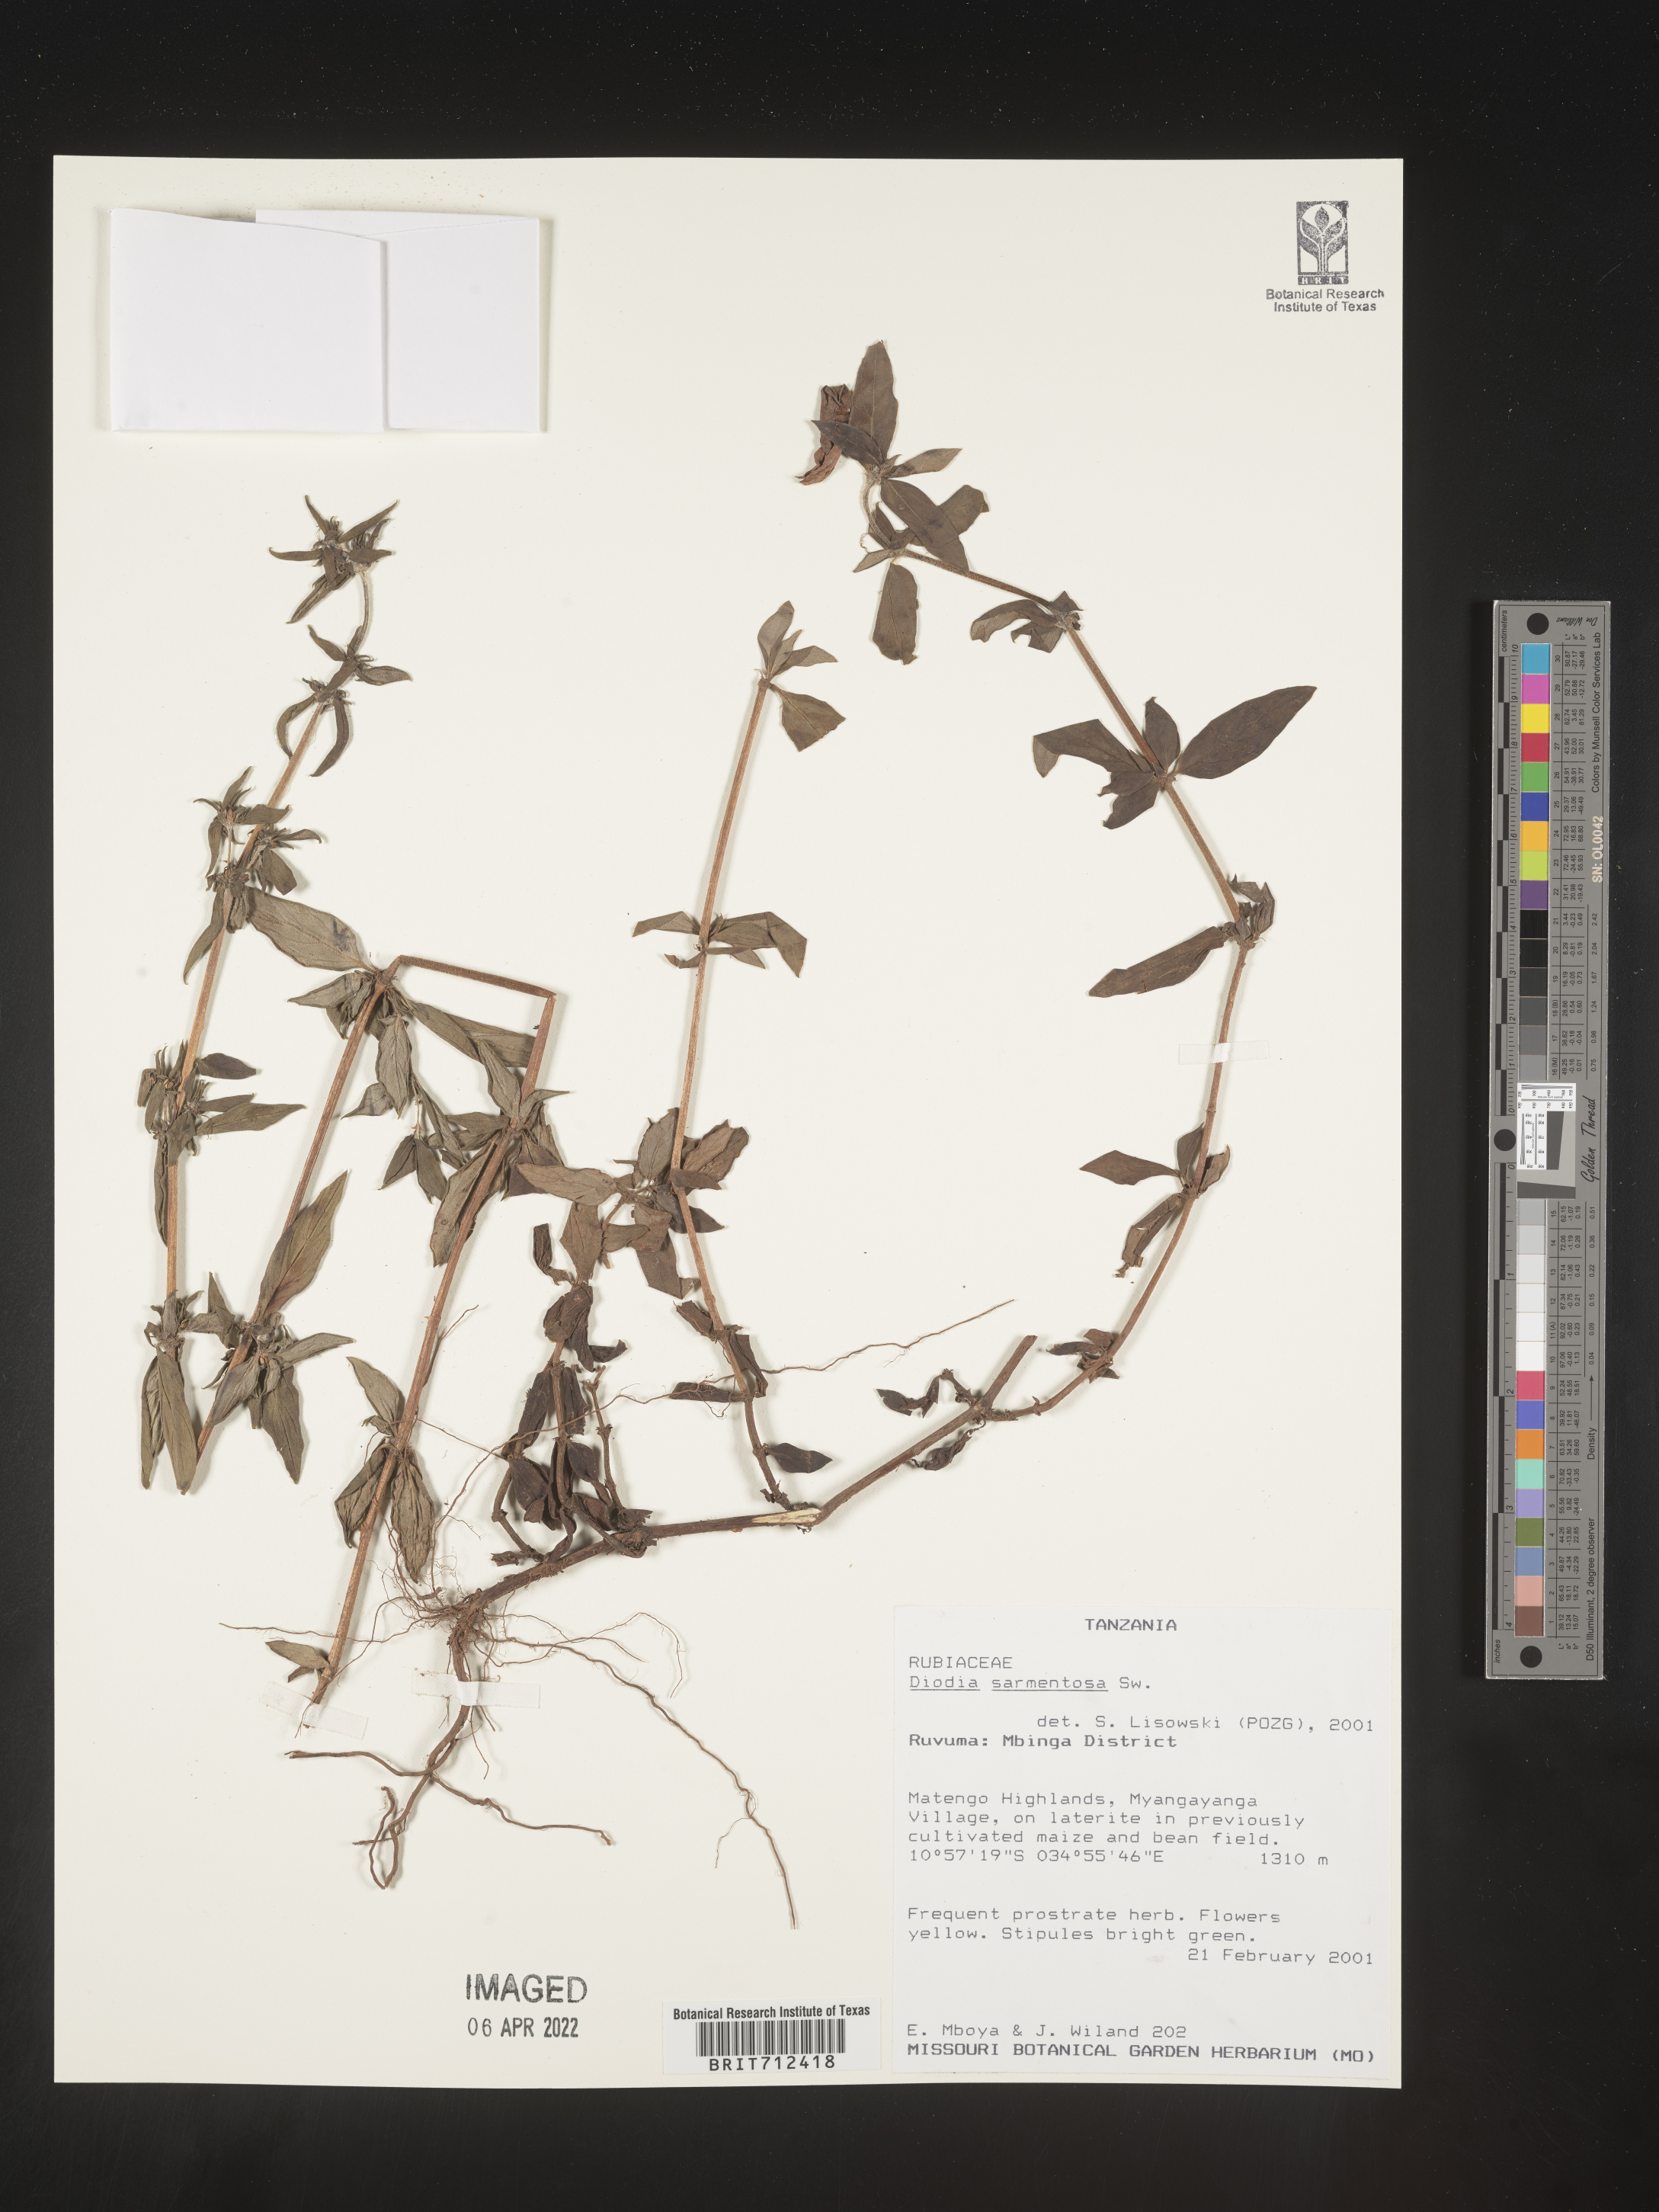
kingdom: Plantae
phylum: Tracheophyta
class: Magnoliopsida
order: Gentianales
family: Rubiaceae
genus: Diodia
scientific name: Diodia
